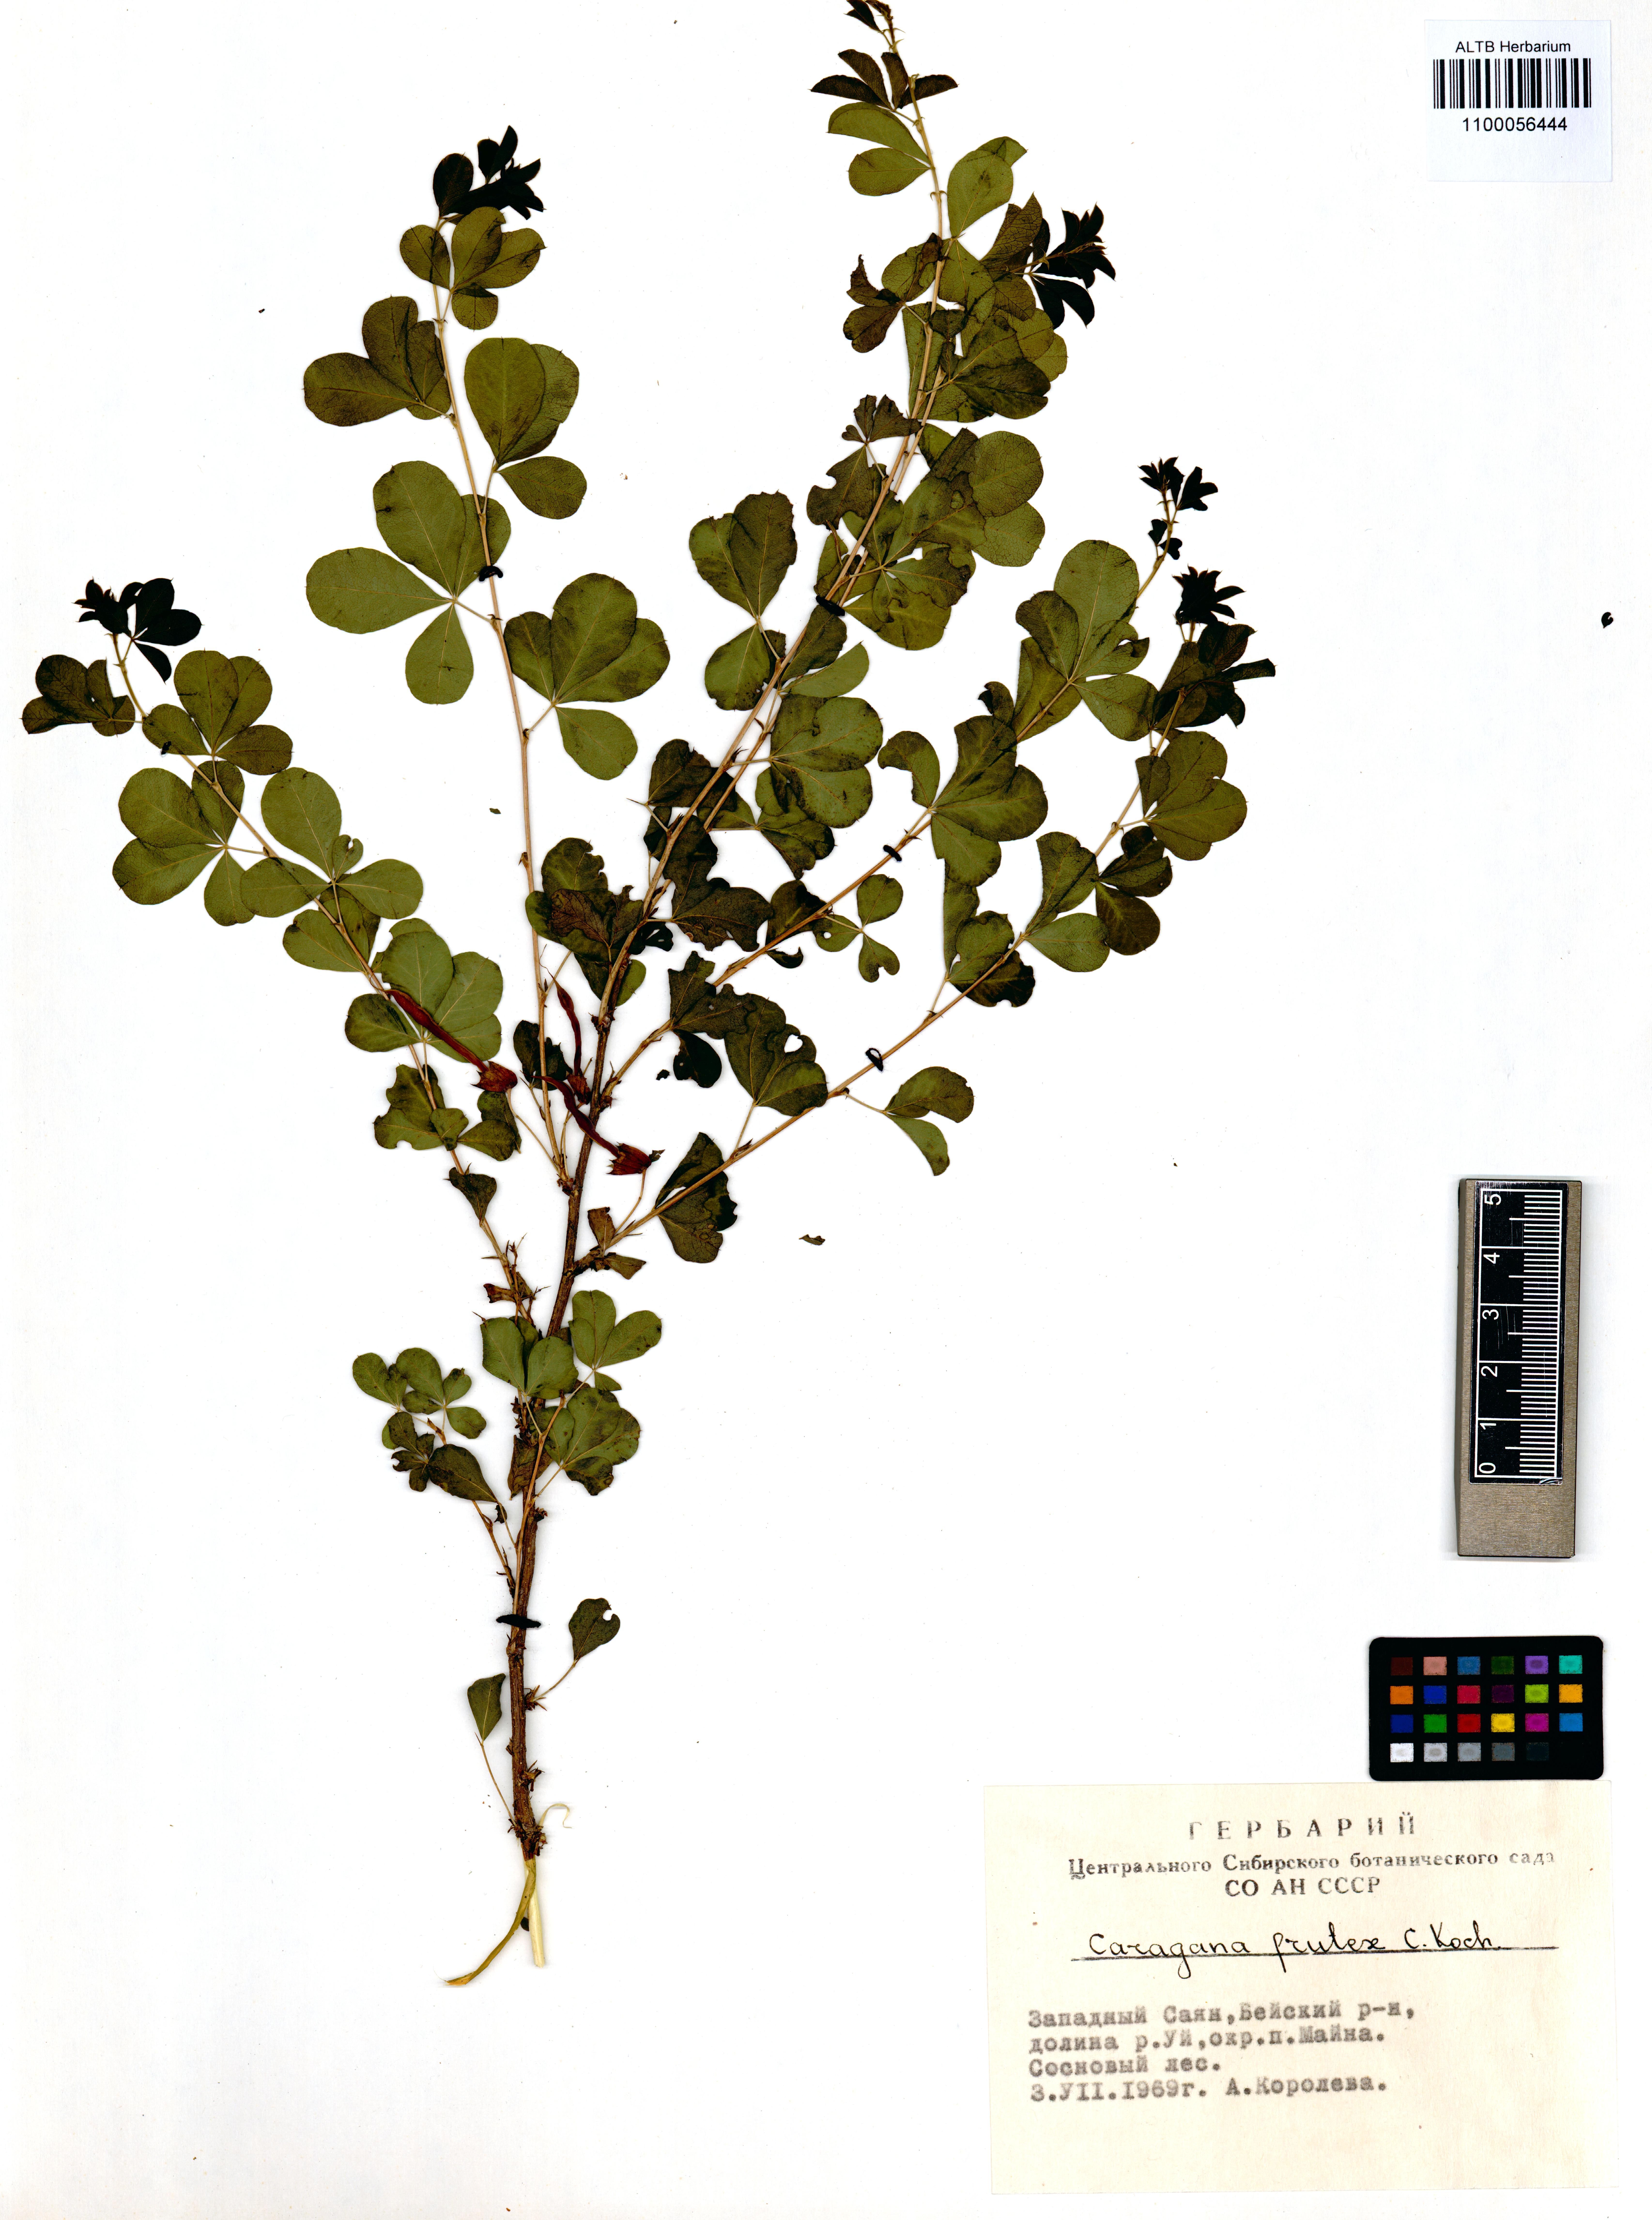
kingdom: Plantae
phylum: Tracheophyta
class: Magnoliopsida
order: Fabales
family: Fabaceae
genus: Caragana
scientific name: Caragana frutex
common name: Russian peashrub
